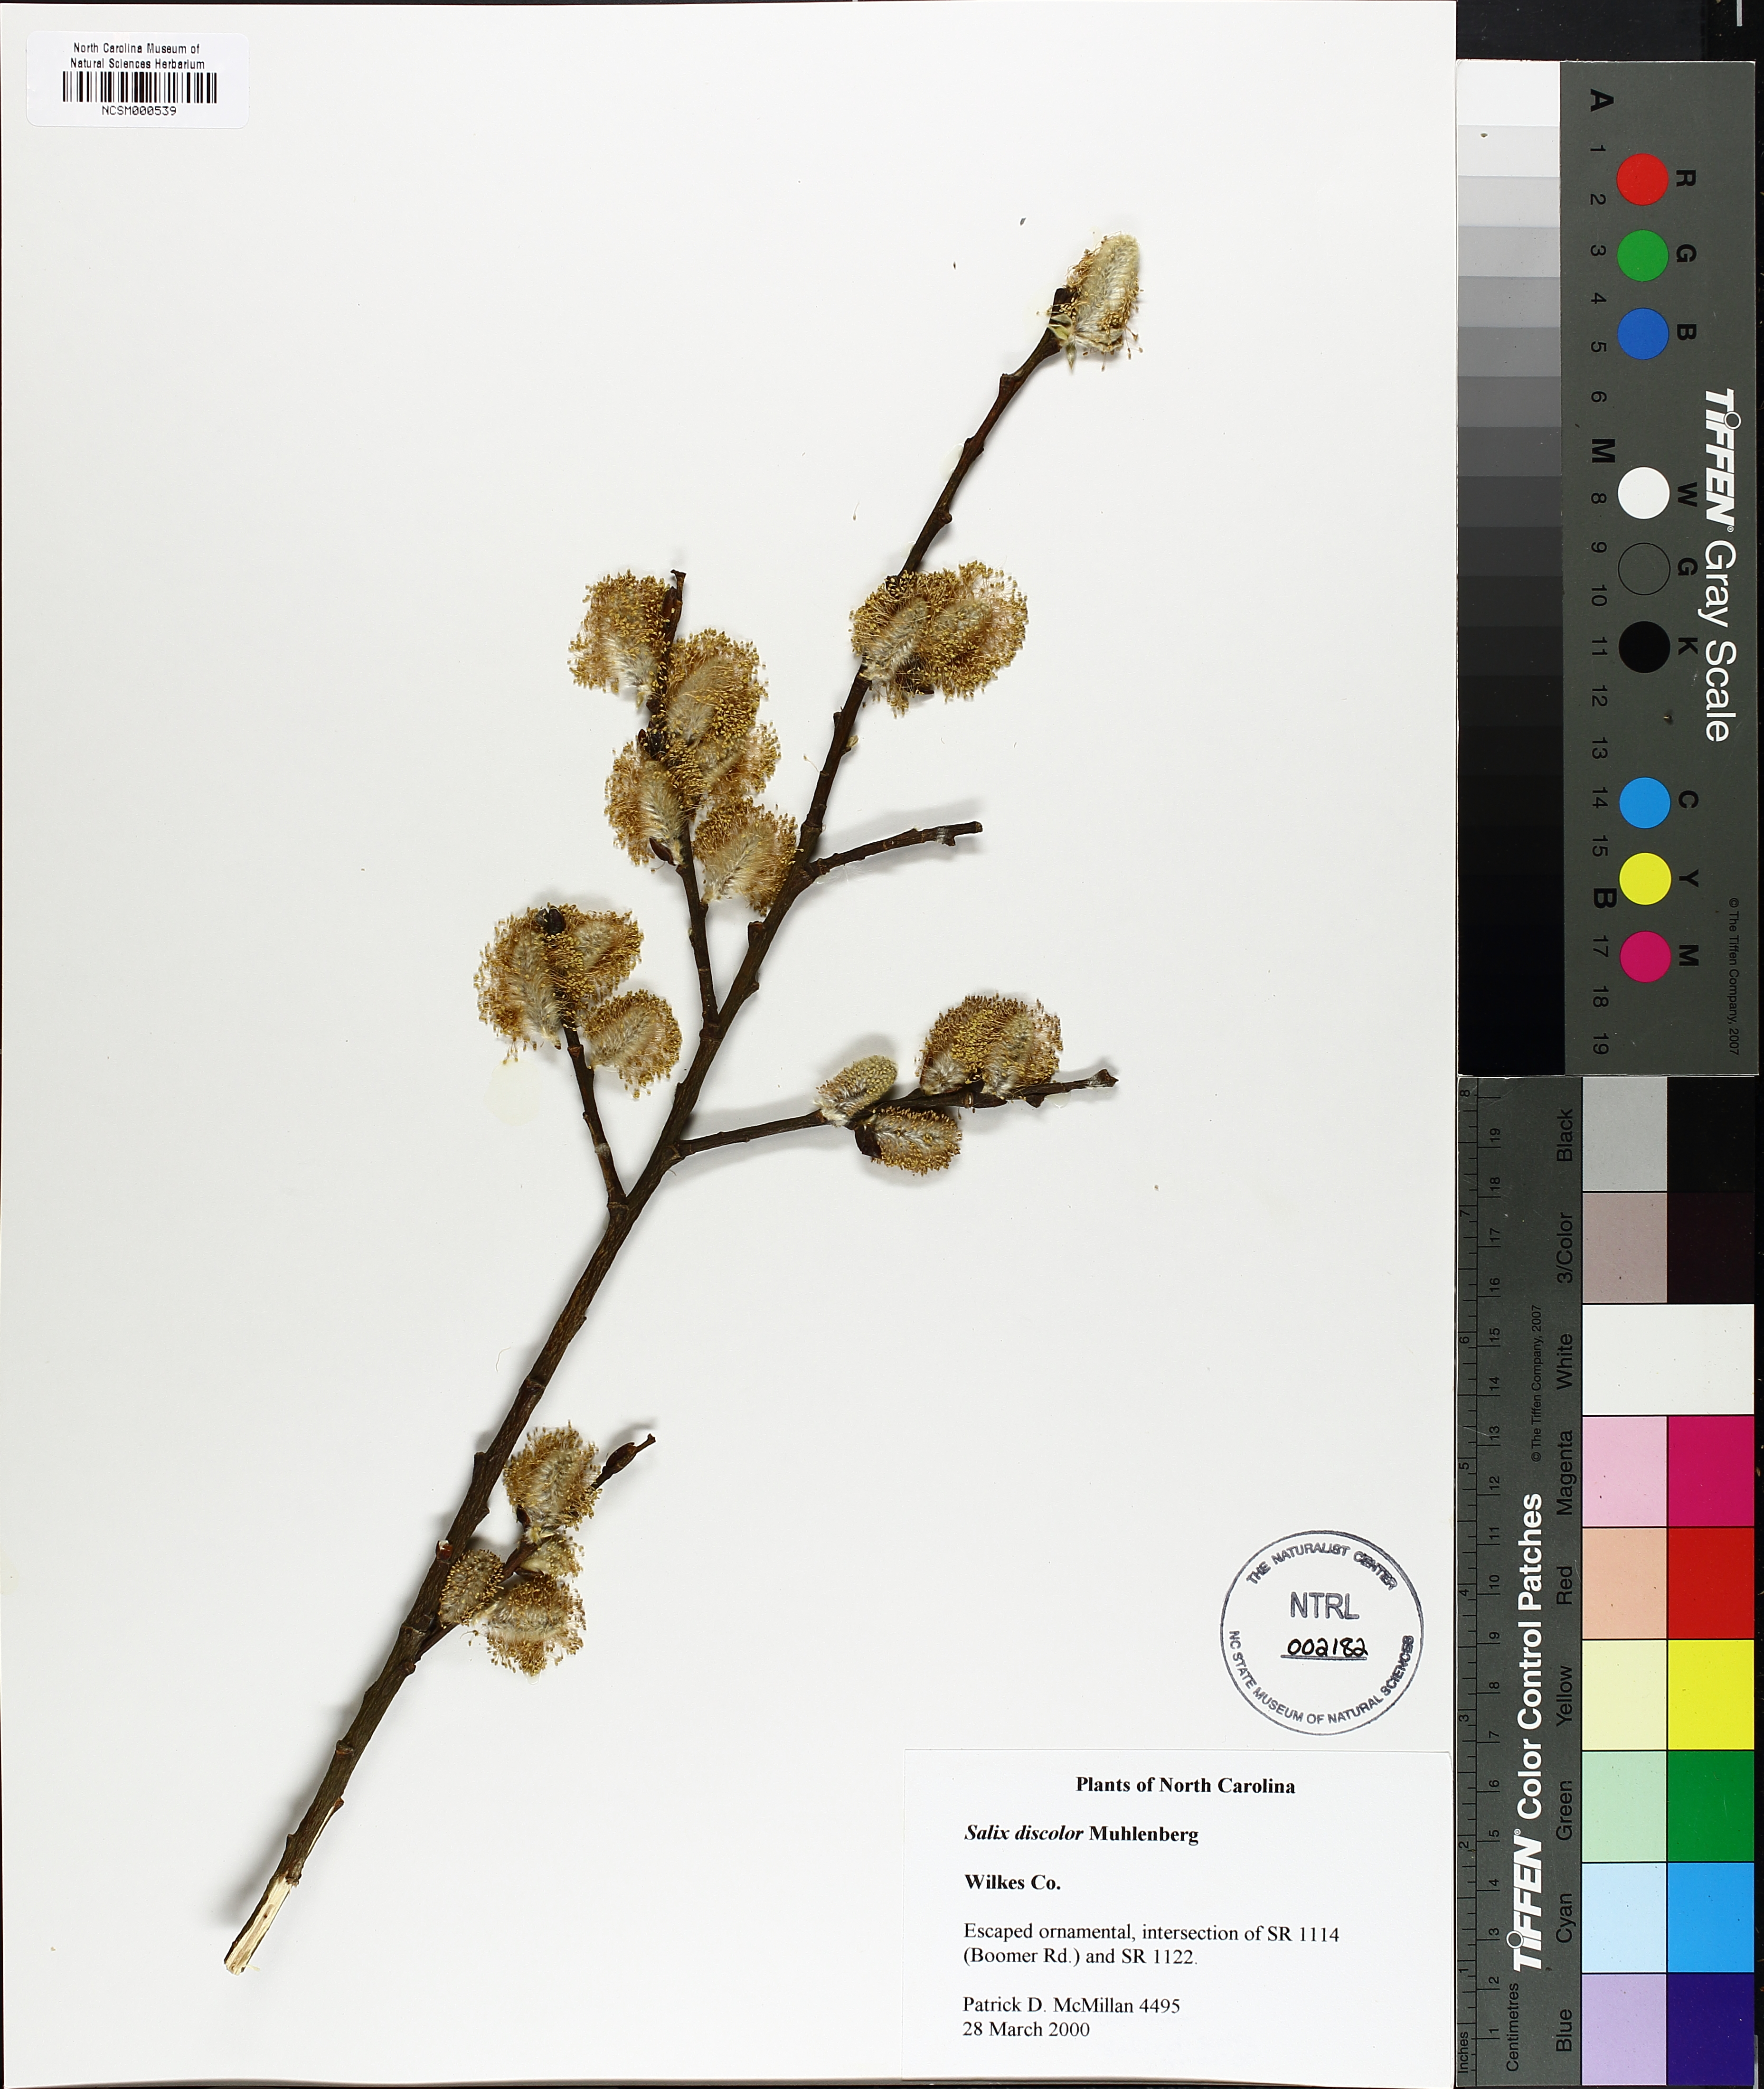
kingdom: Plantae
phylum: Tracheophyta
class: Magnoliopsida
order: Malpighiales
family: Salicaceae
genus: Salix
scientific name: Salix discolor
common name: Glaucous willow
